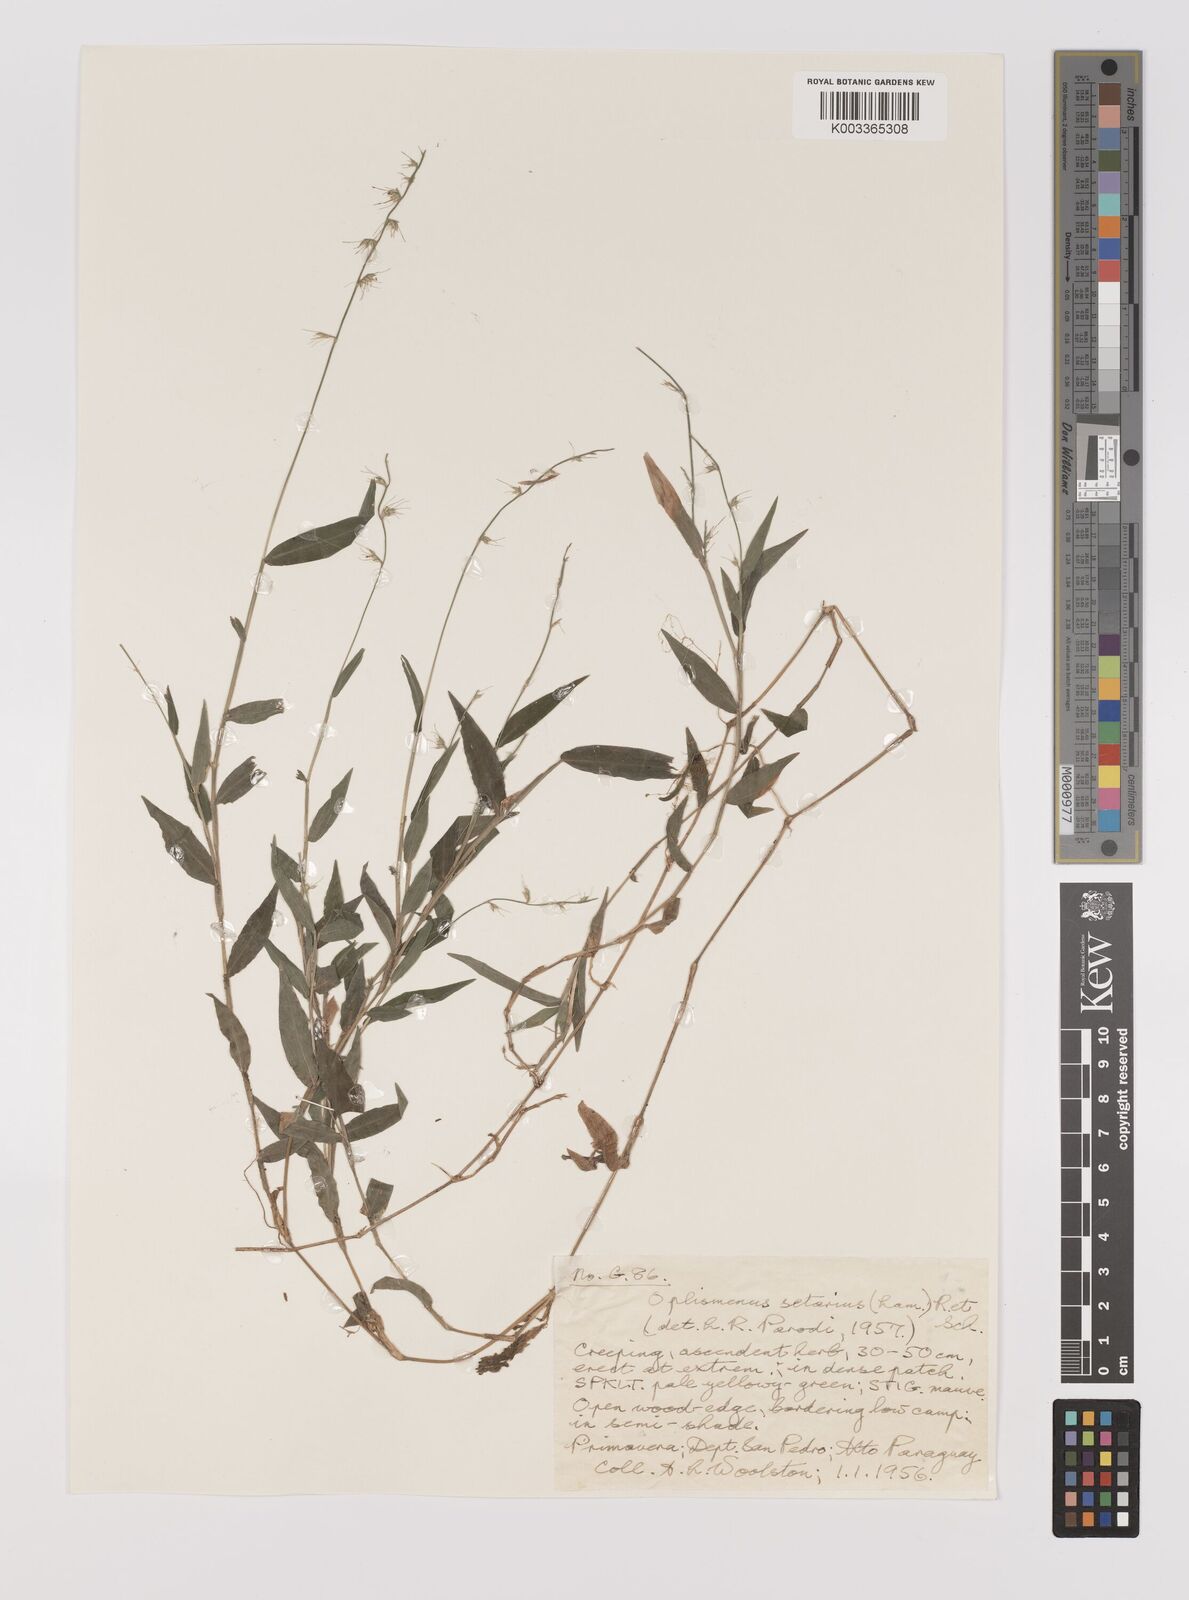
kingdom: Plantae
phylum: Tracheophyta
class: Liliopsida
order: Poales
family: Poaceae
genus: Oplismenus
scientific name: Oplismenus hirtellus
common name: Basketgrass
